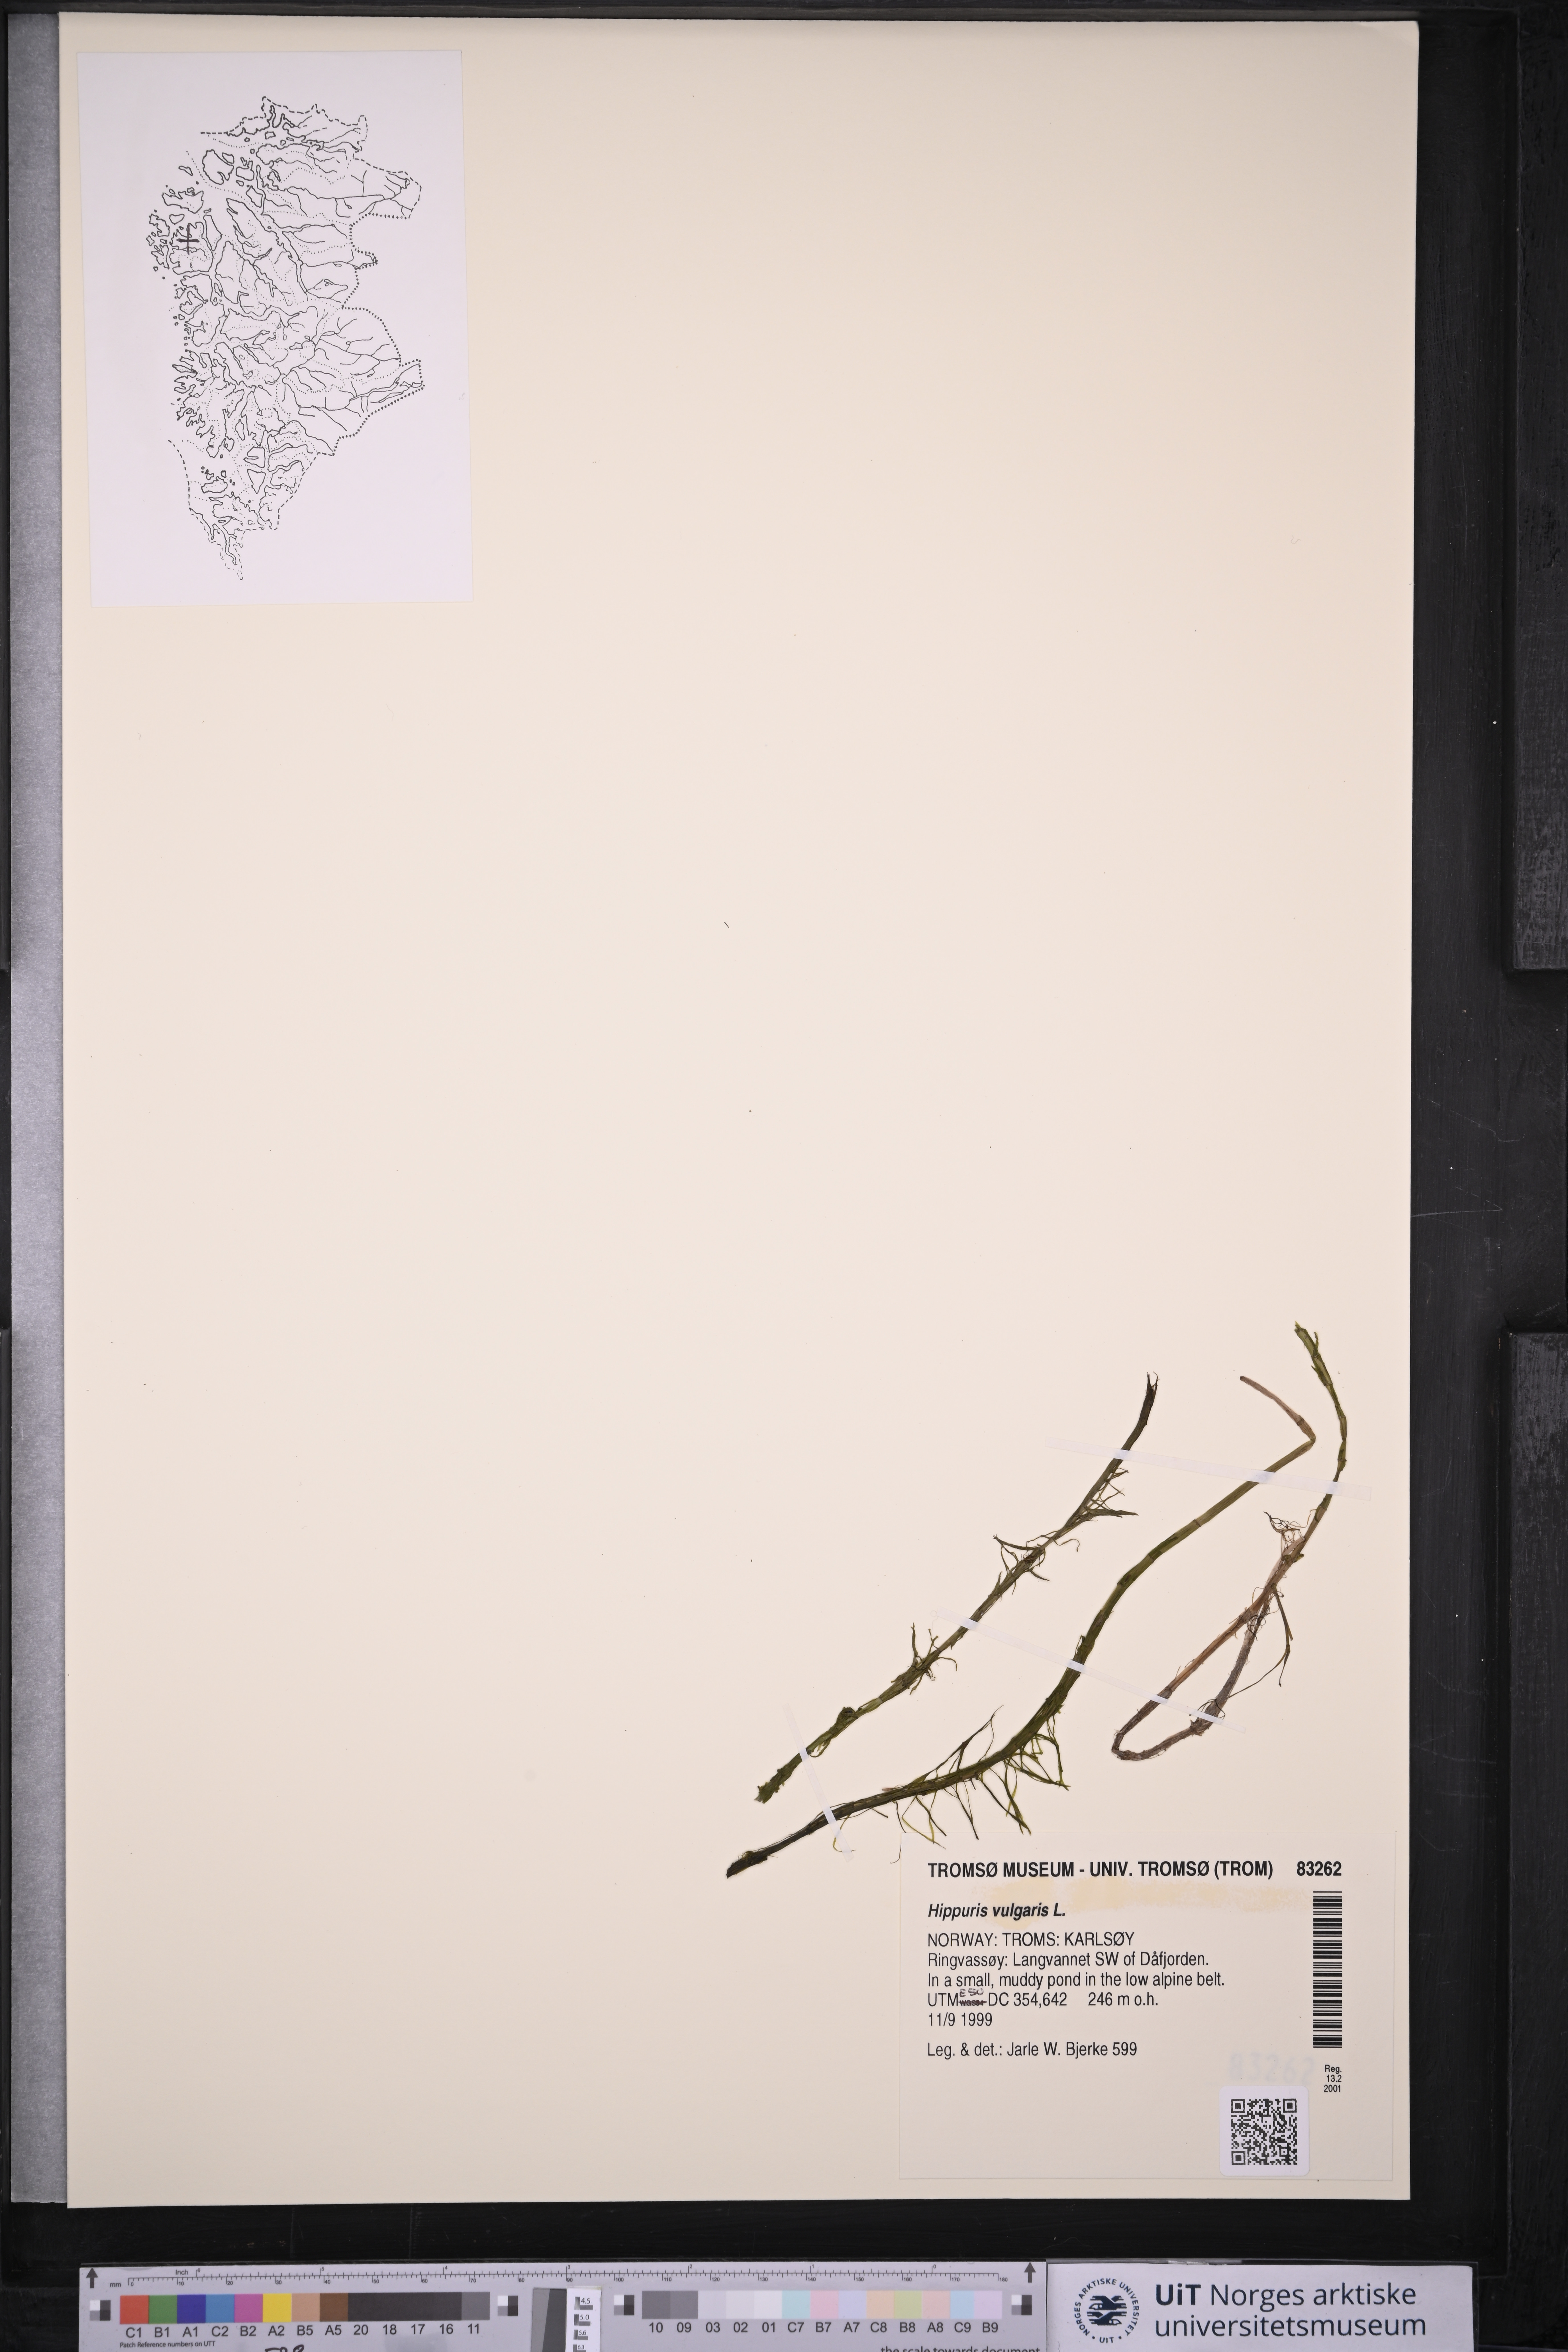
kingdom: Plantae
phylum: Tracheophyta
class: Magnoliopsida
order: Lamiales
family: Plantaginaceae
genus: Hippuris
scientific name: Hippuris vulgaris
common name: Mare's-tail
